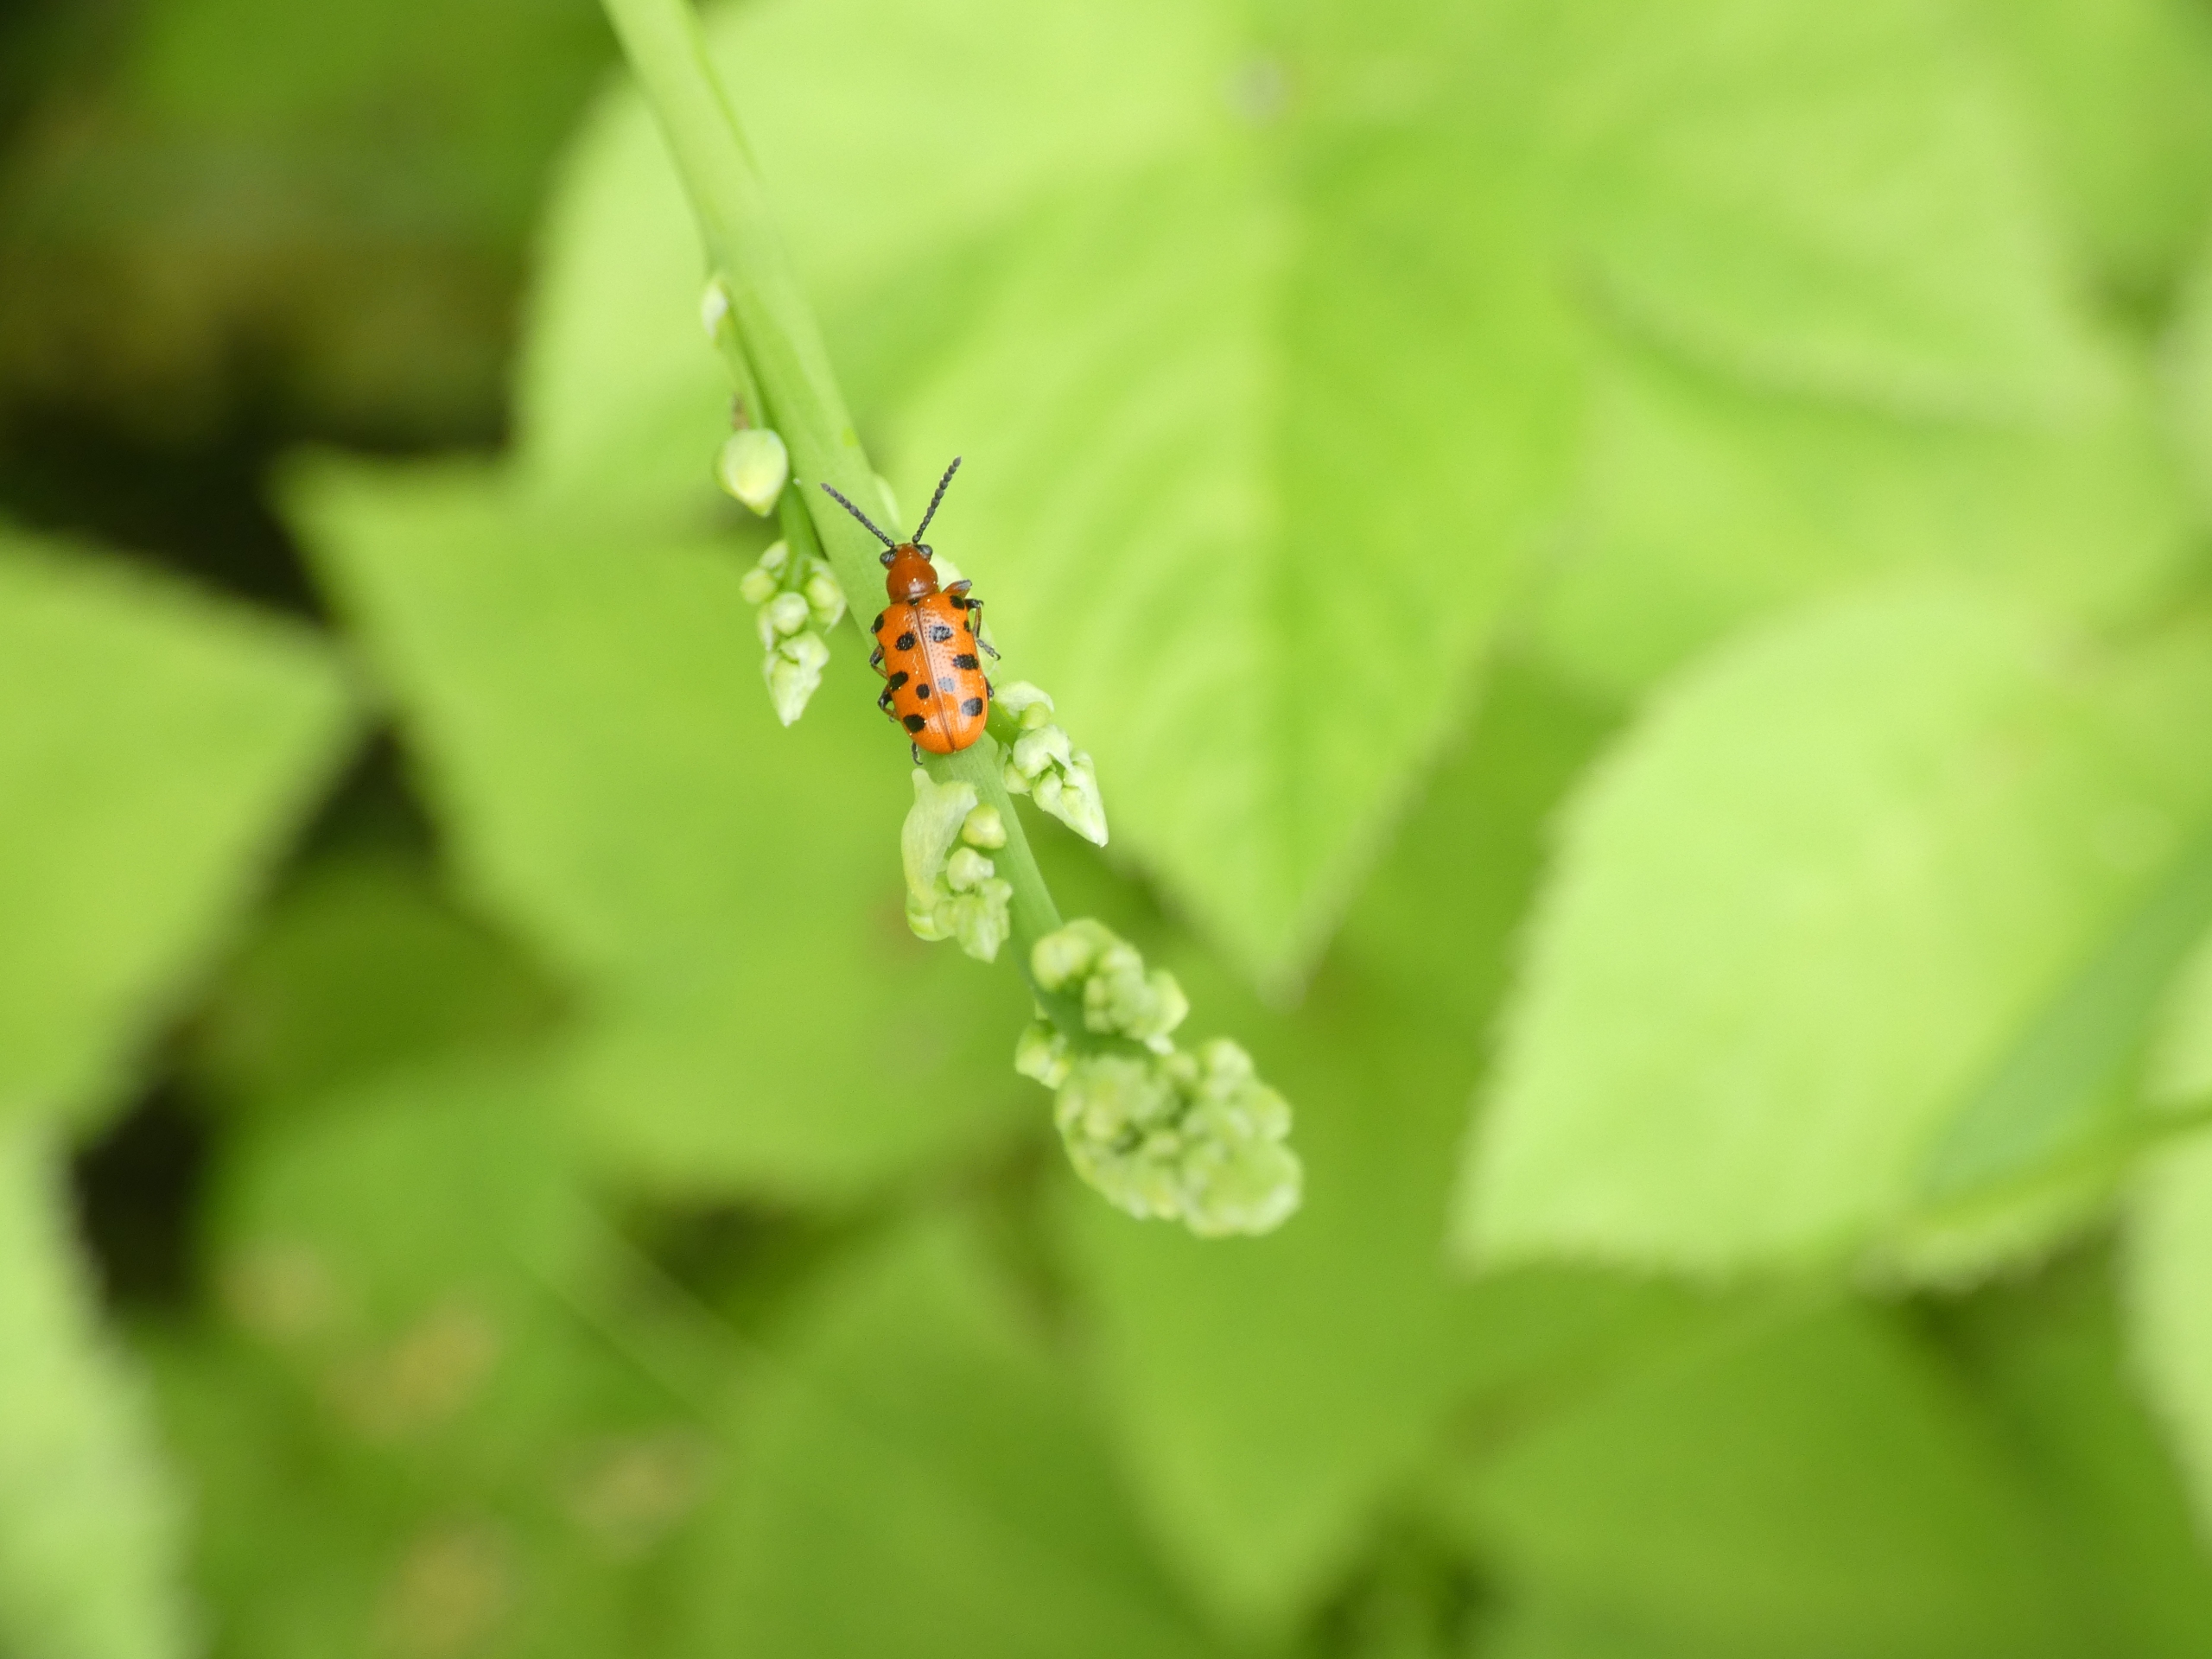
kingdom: Animalia
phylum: Arthropoda
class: Insecta
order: Coleoptera
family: Chrysomelidae
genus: Crioceris
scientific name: Crioceris duodecimpunctata
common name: Tolvplettet aspargesbille
